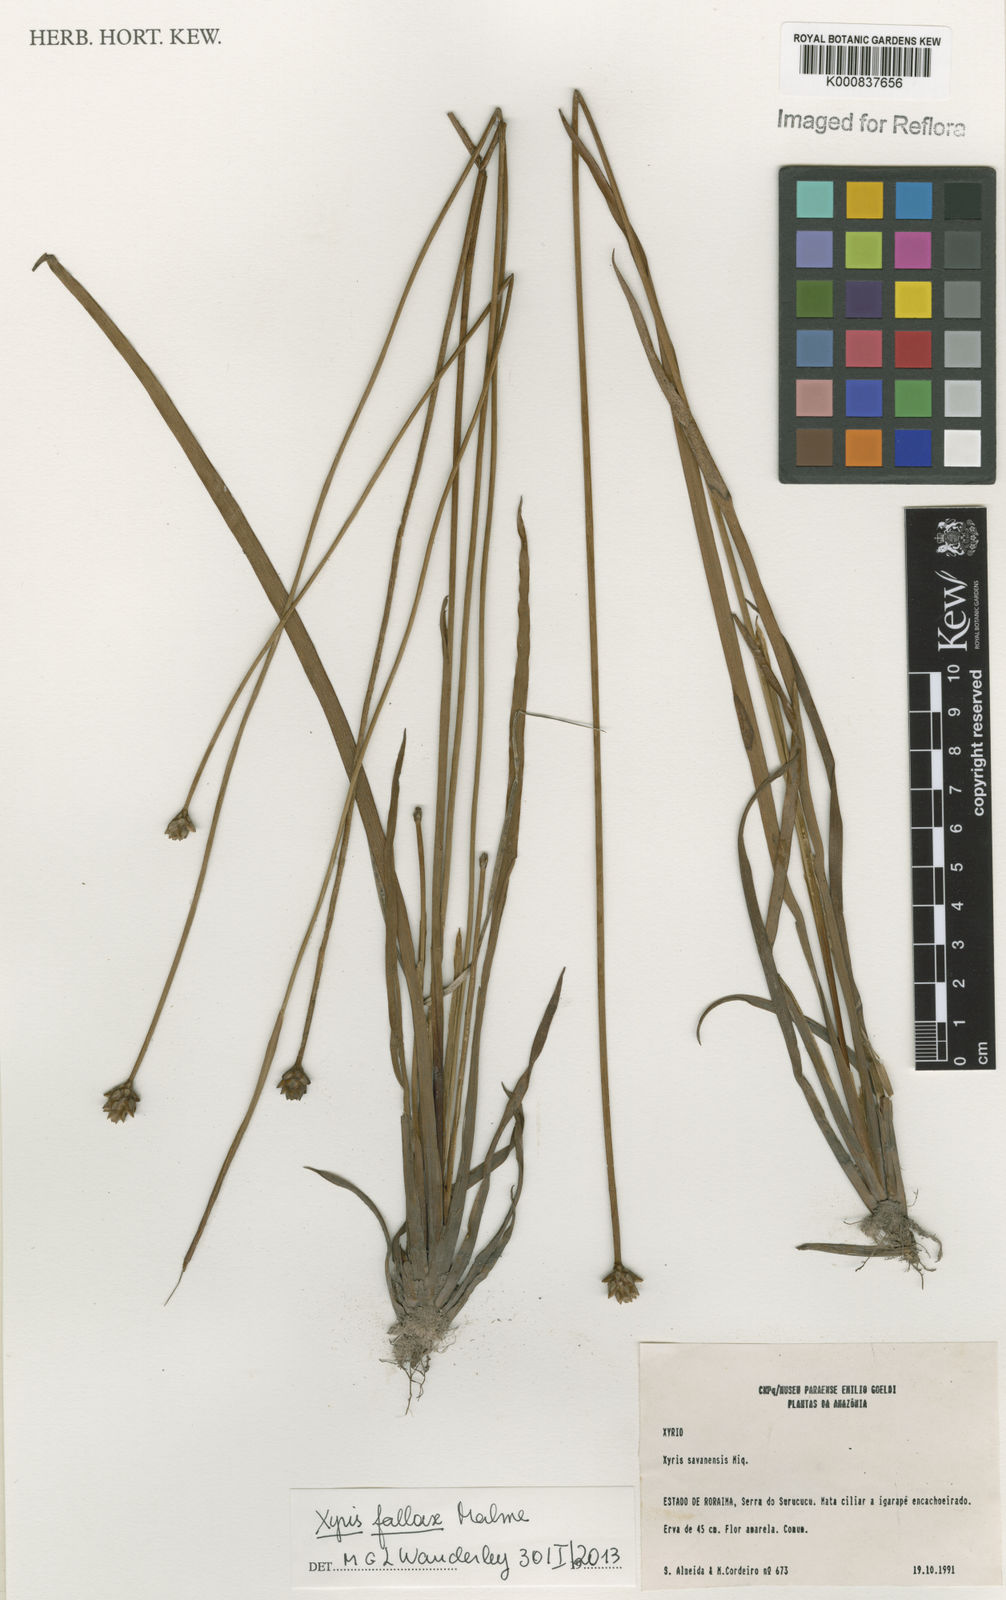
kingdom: Plantae
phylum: Tracheophyta
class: Liliopsida
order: Poales
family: Xyridaceae
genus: Xyris
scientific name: Xyris fallax
